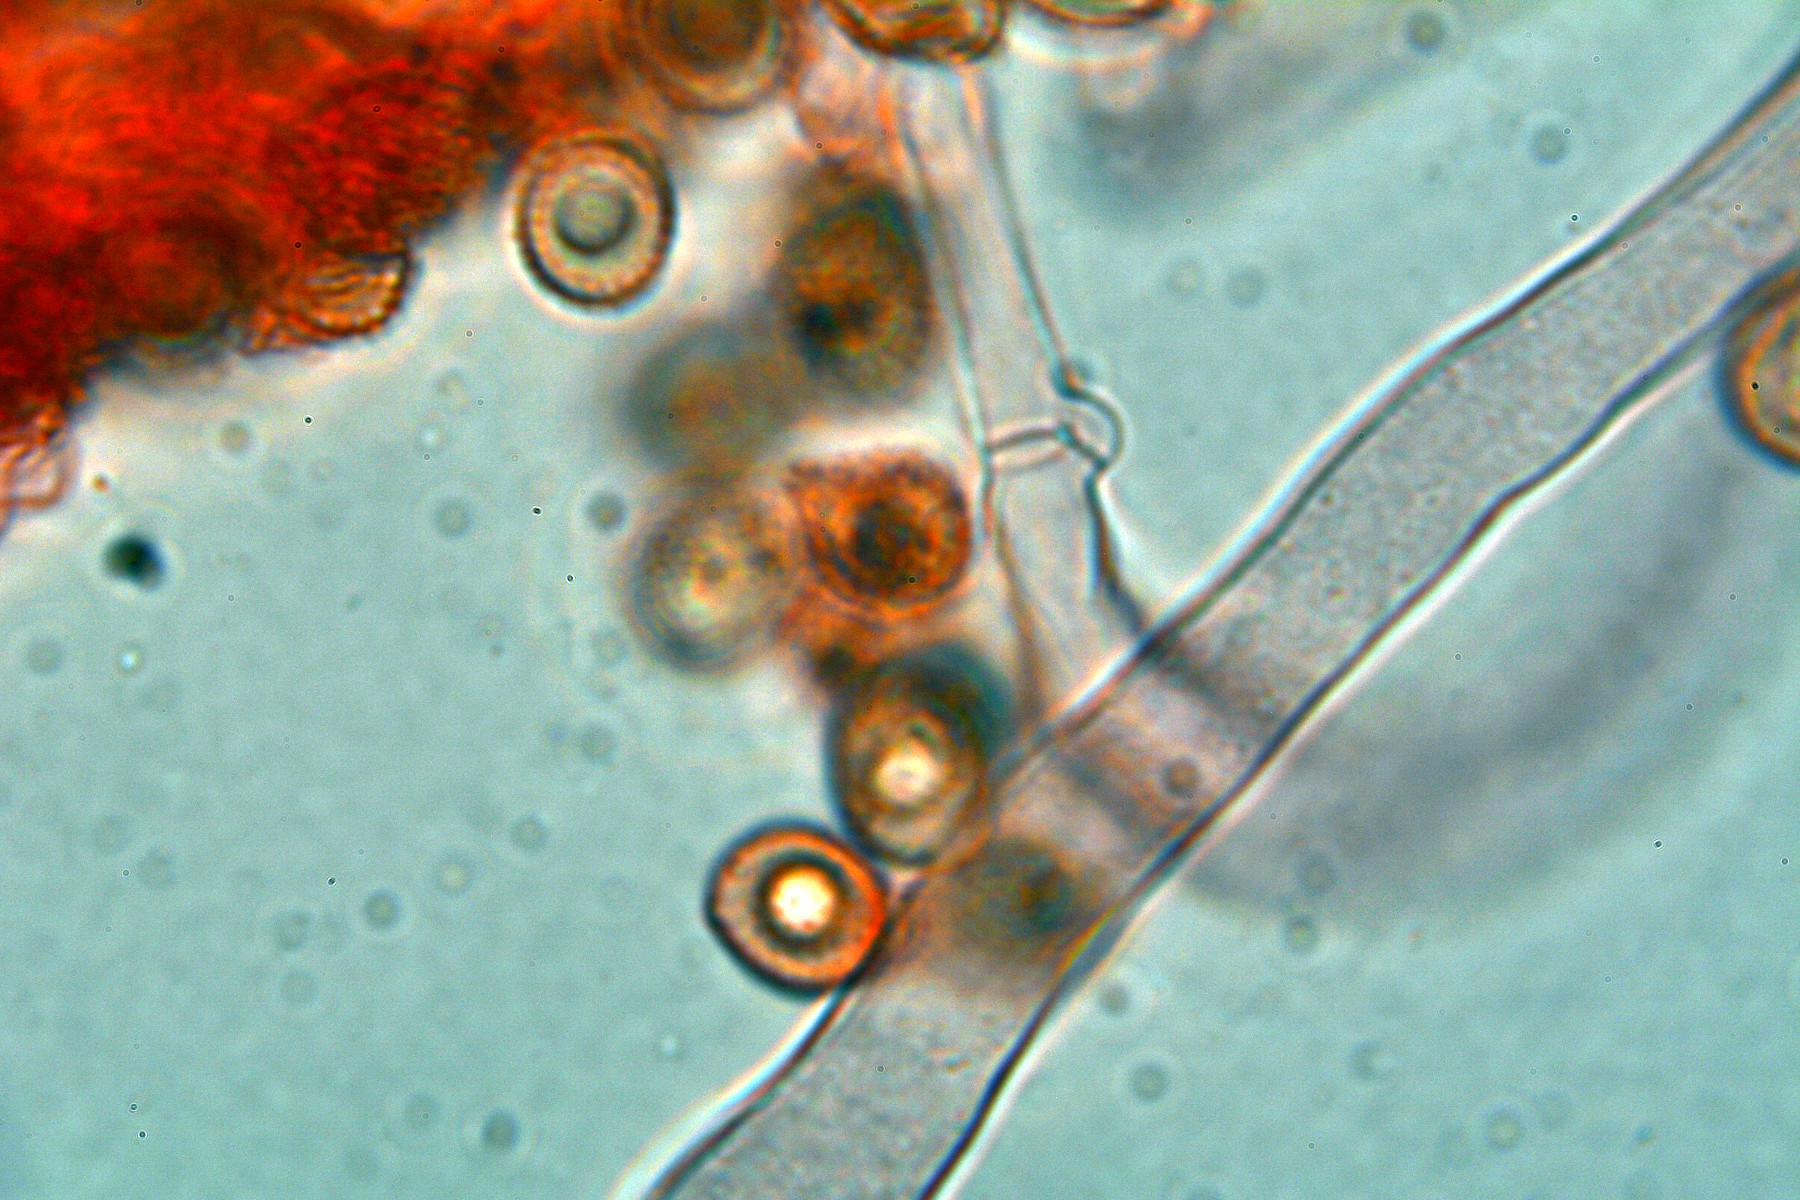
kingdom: Fungi
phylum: Basidiomycota
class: Agaricomycetes
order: Agaricales
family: Crepidotaceae
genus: Crepidotus
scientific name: Crepidotus cesatii
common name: almindelig muslingesvamp
